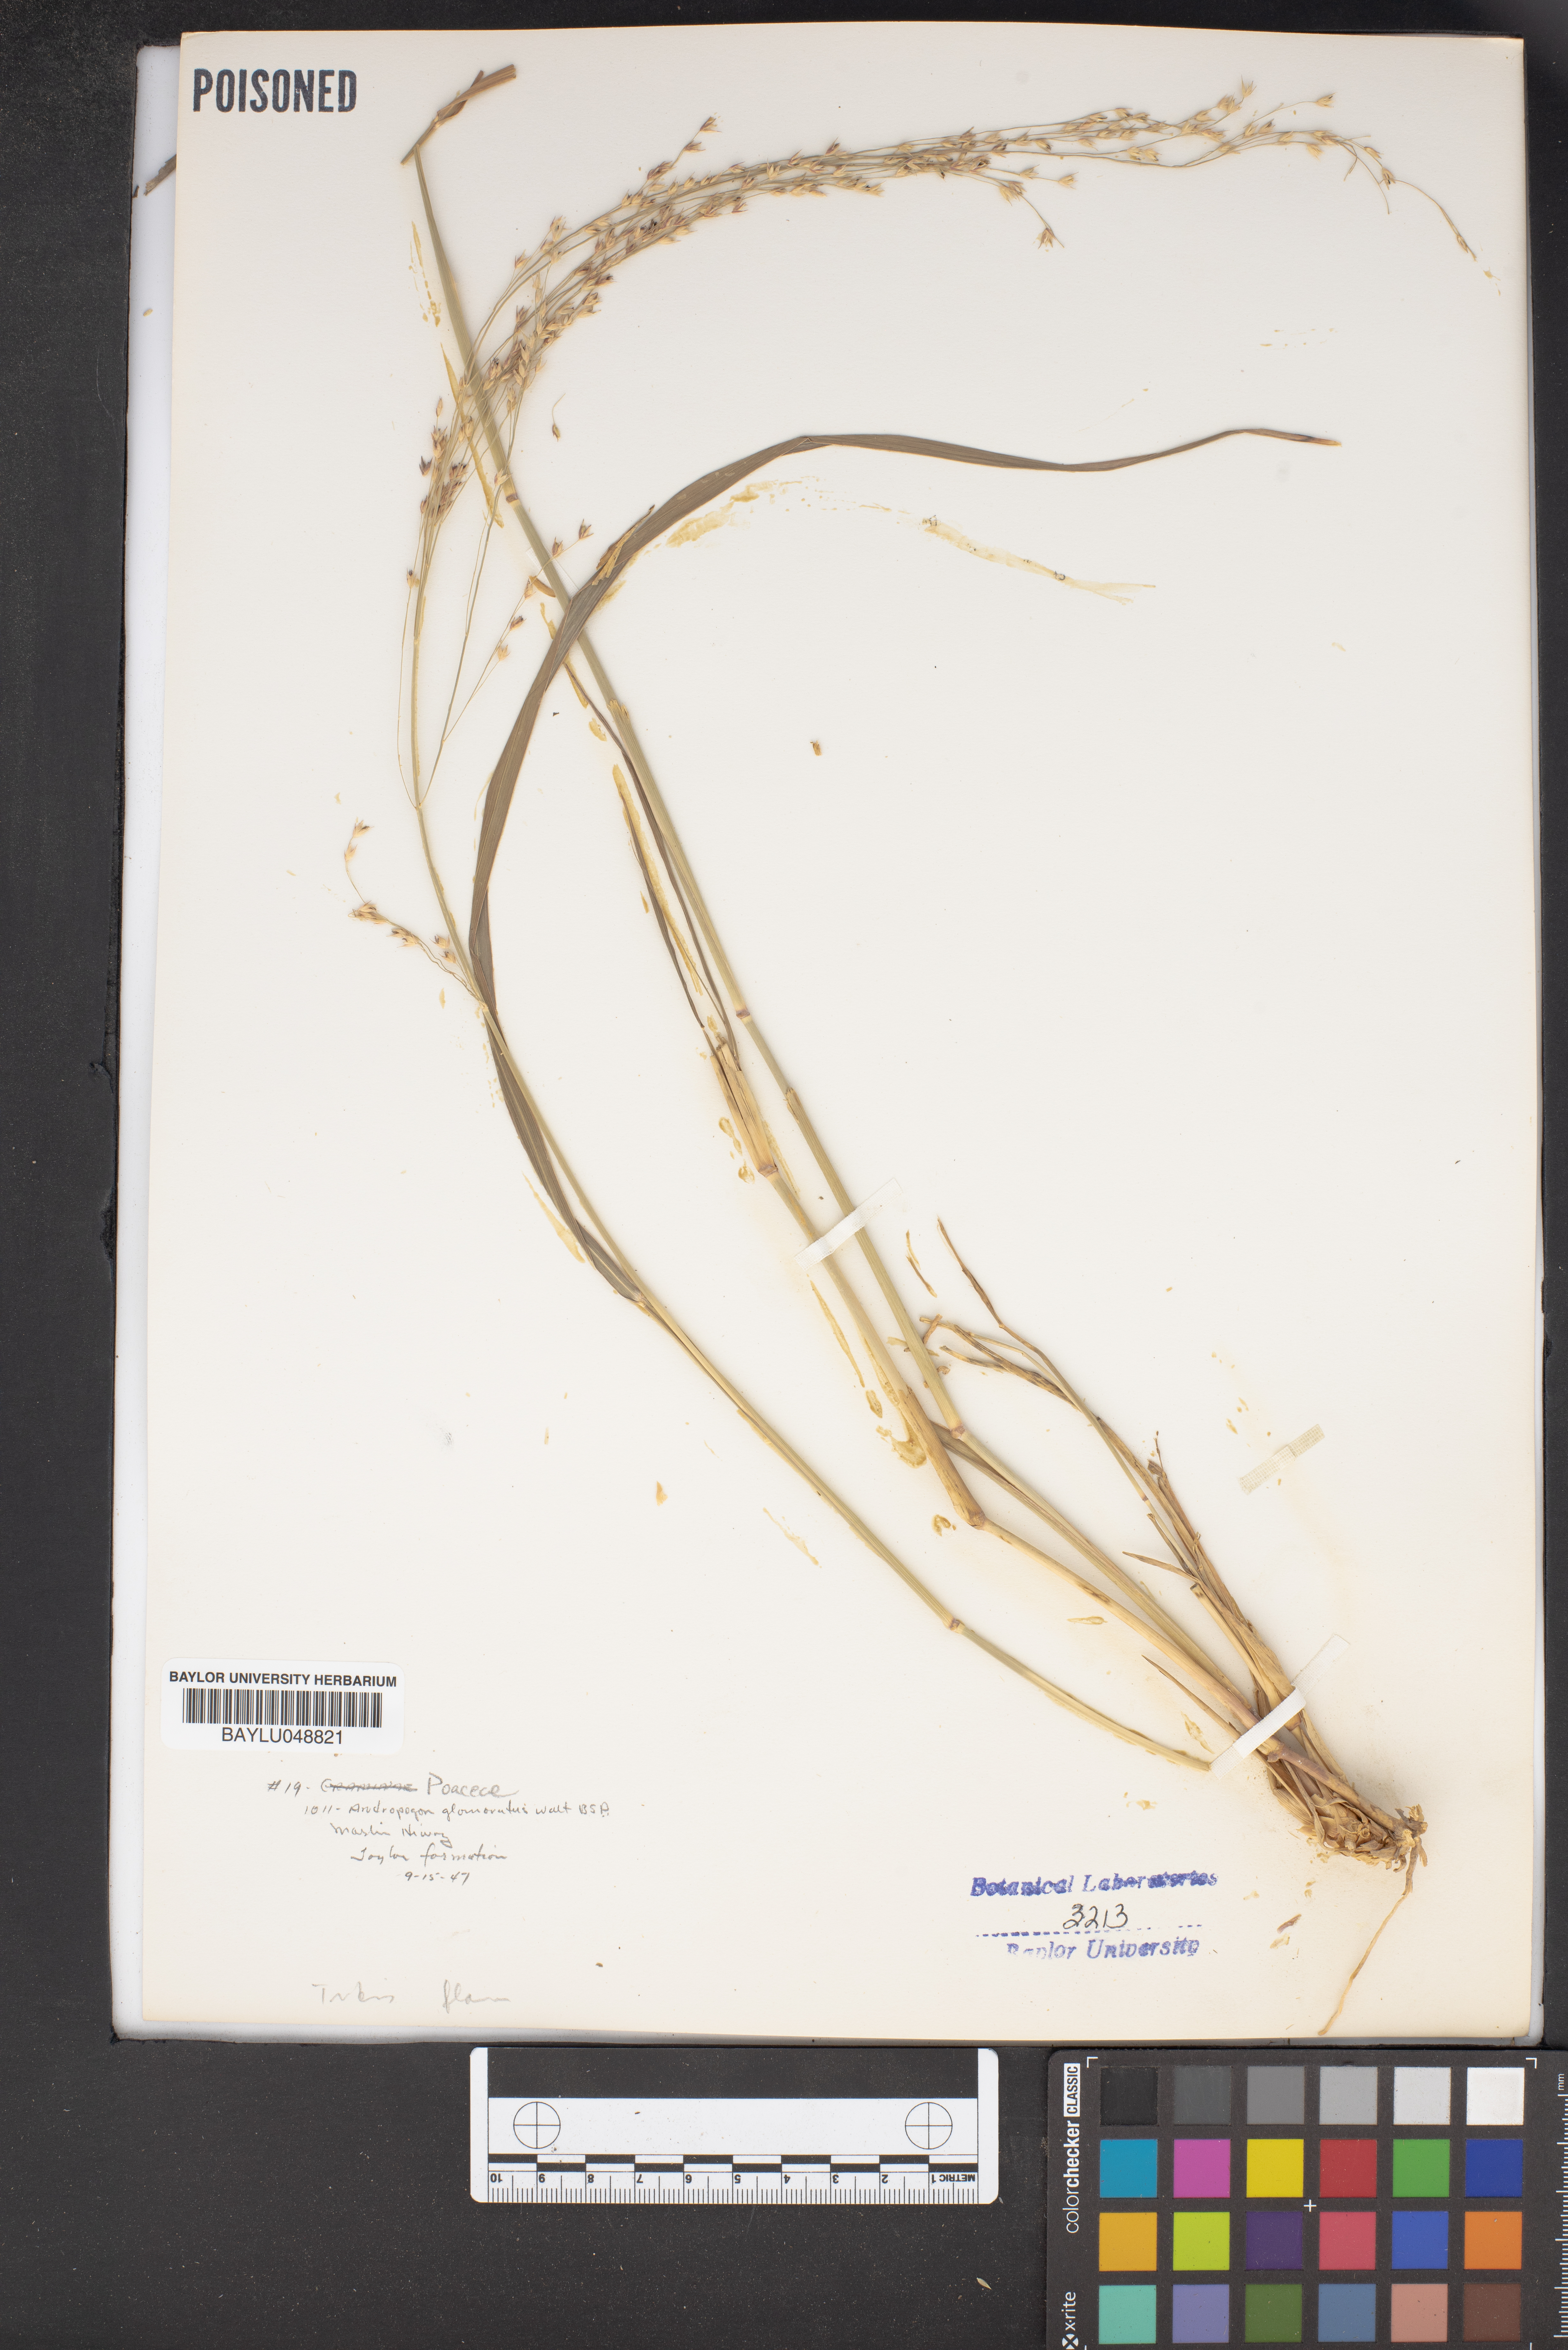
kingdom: Plantae
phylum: Tracheophyta
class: Liliopsida
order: Poales
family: Poaceae
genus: Andropogon
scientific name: Andropogon glomeratus
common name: Bushy beard grass
